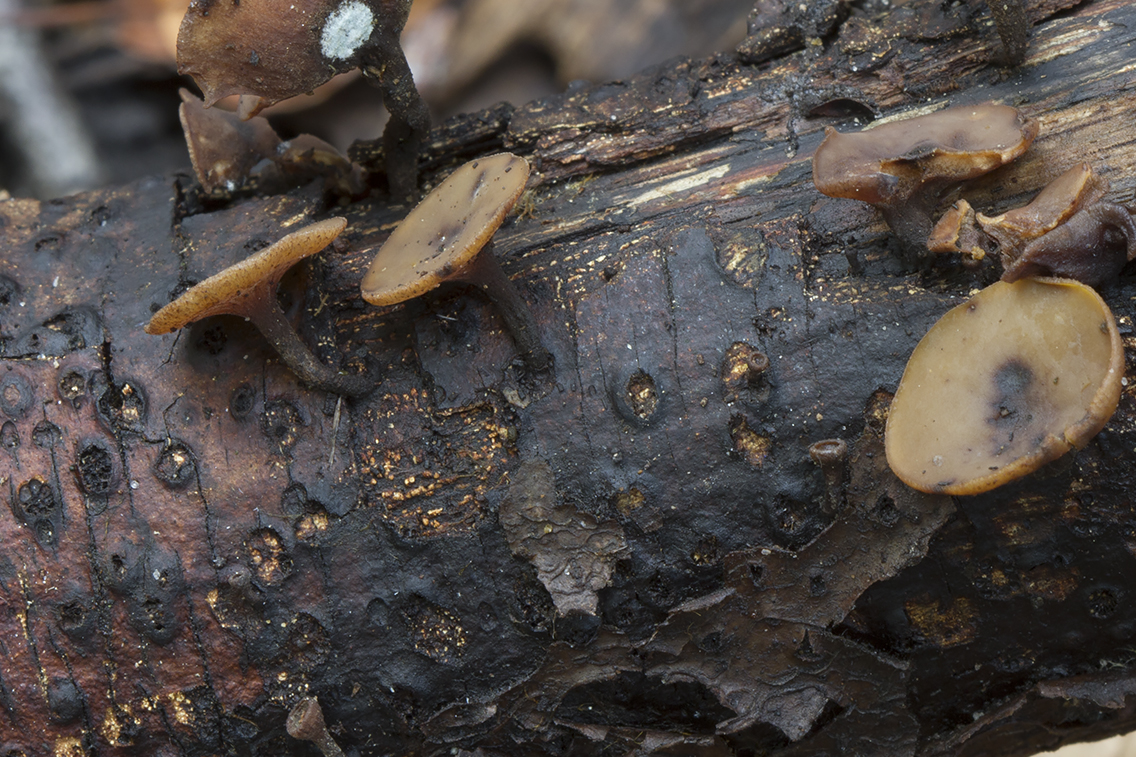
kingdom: Fungi
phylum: Ascomycota
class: Leotiomycetes
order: Helotiales
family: Rutstroemiaceae
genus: Rutstroemia
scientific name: Rutstroemia
